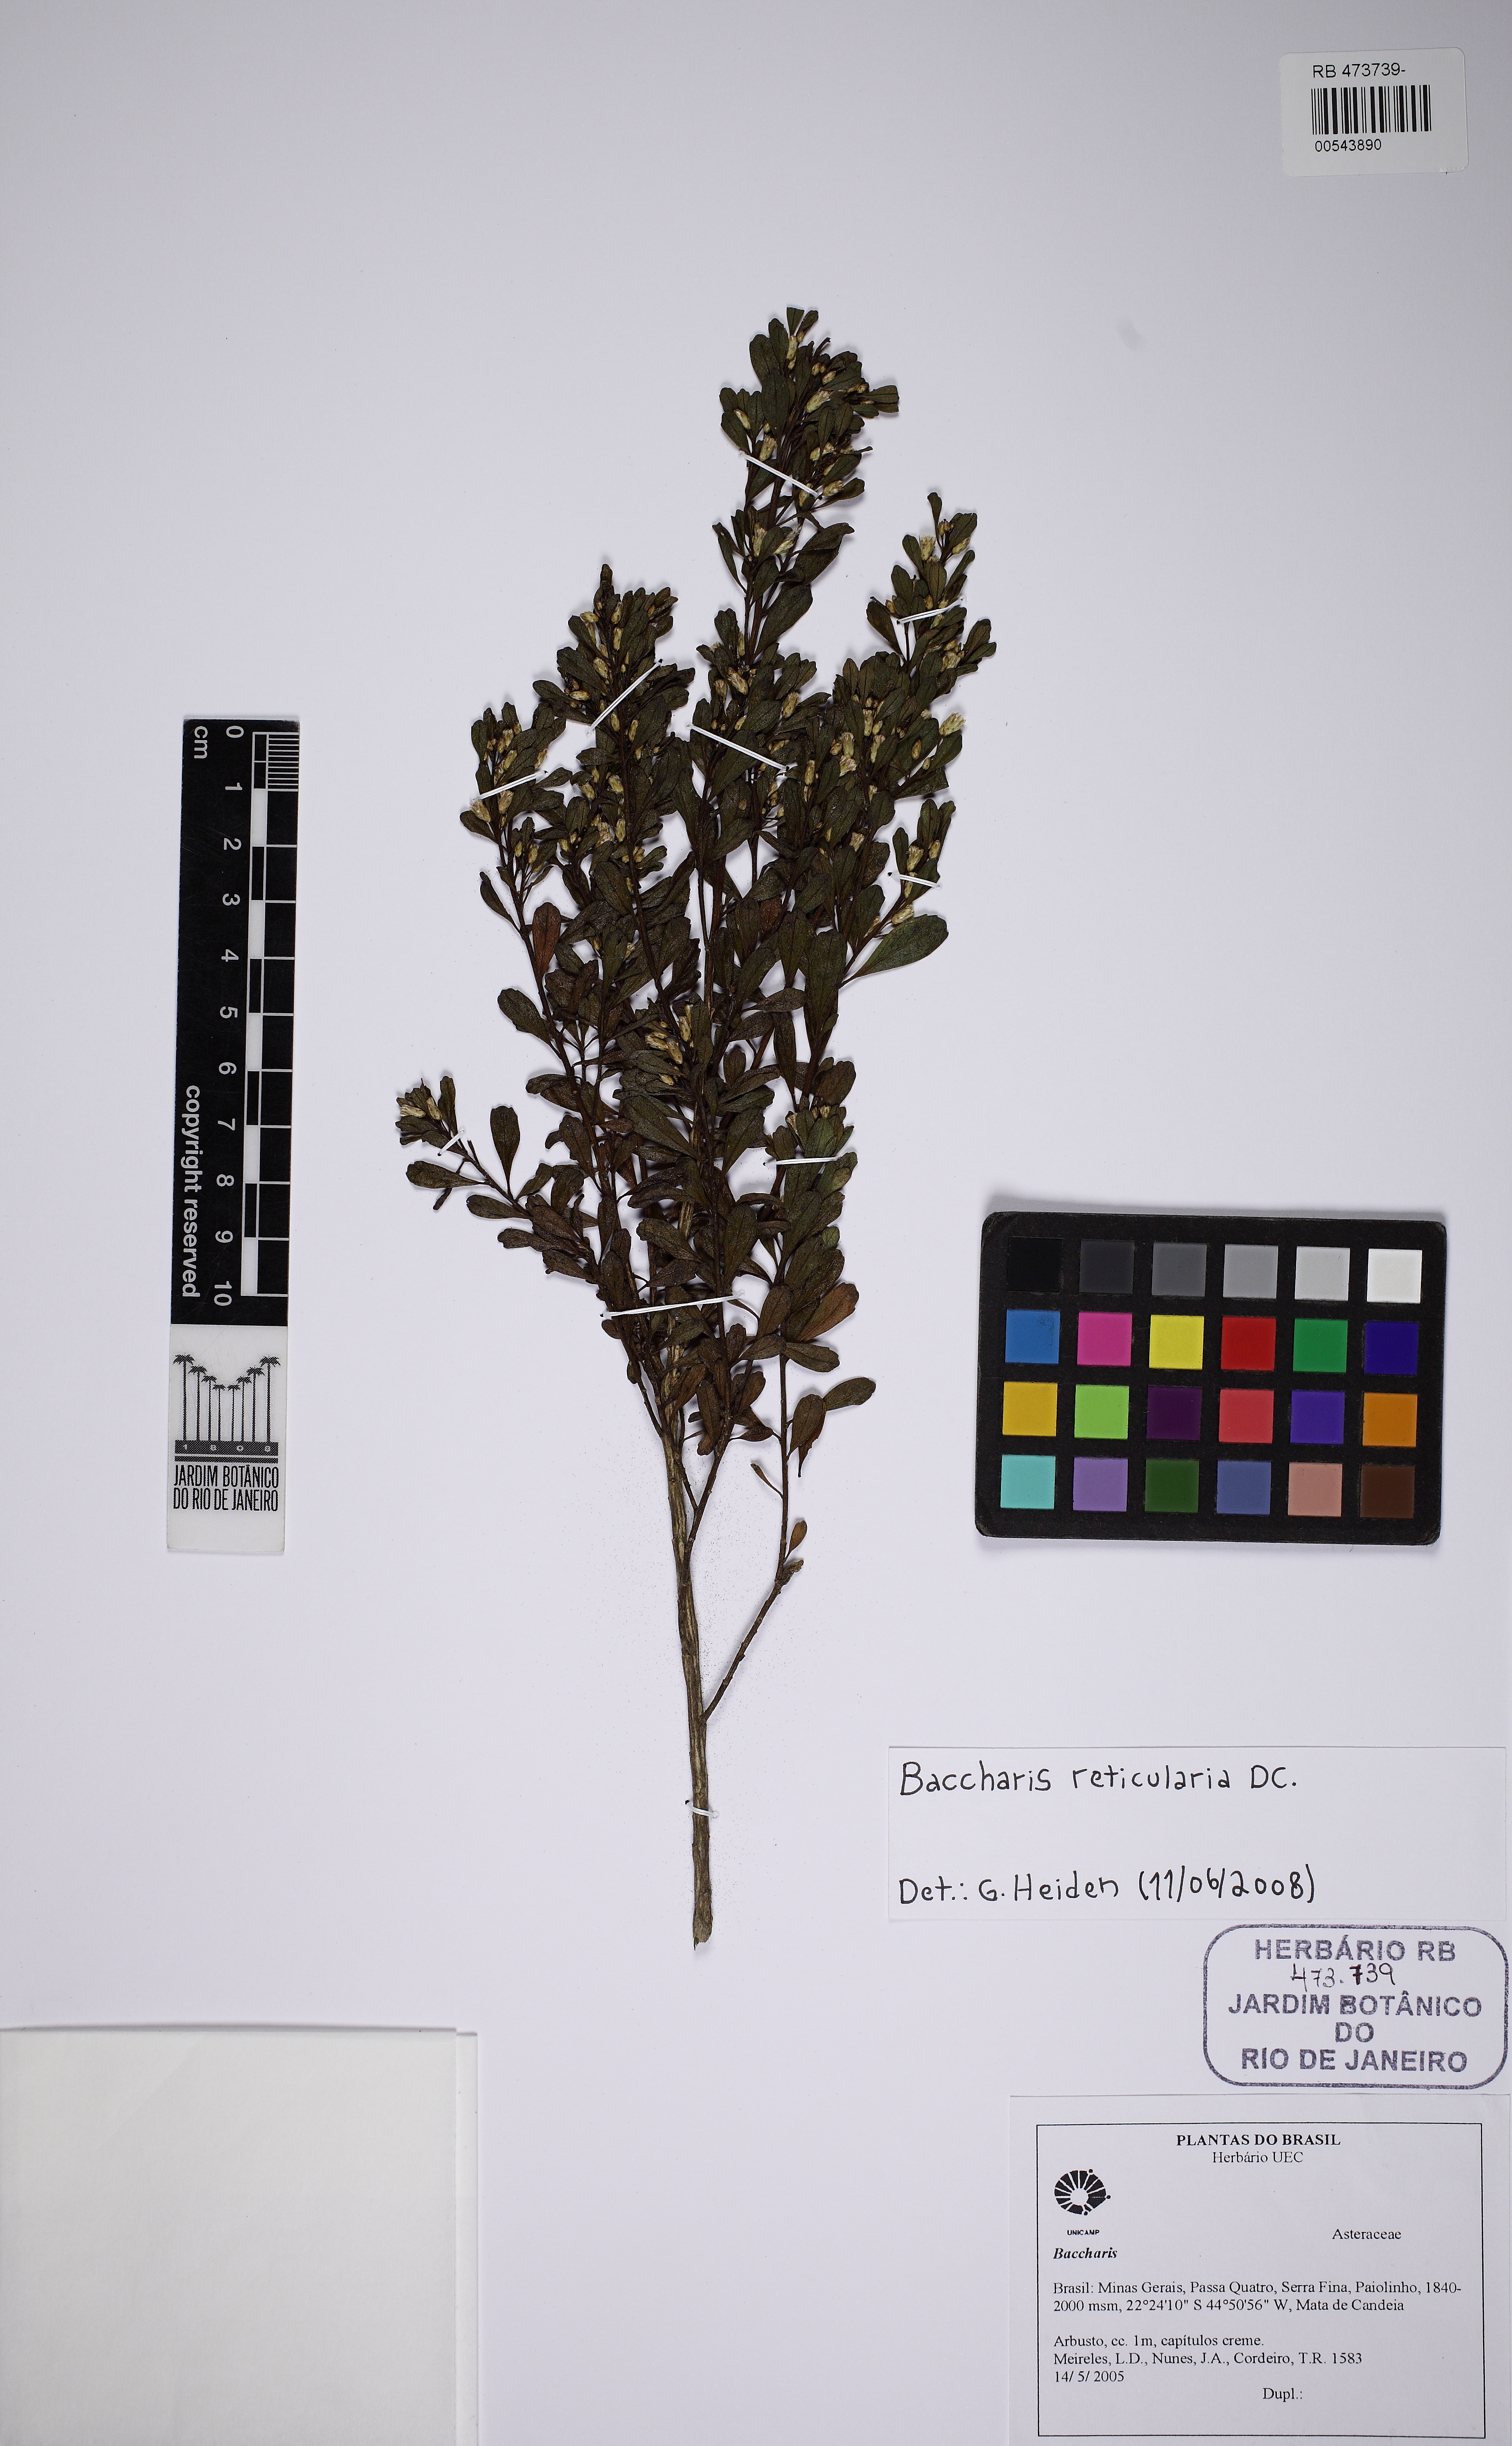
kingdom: Plantae
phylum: Tracheophyta
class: Magnoliopsida
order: Asterales
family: Asteraceae
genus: Baccharis
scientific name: Baccharis reticularia
